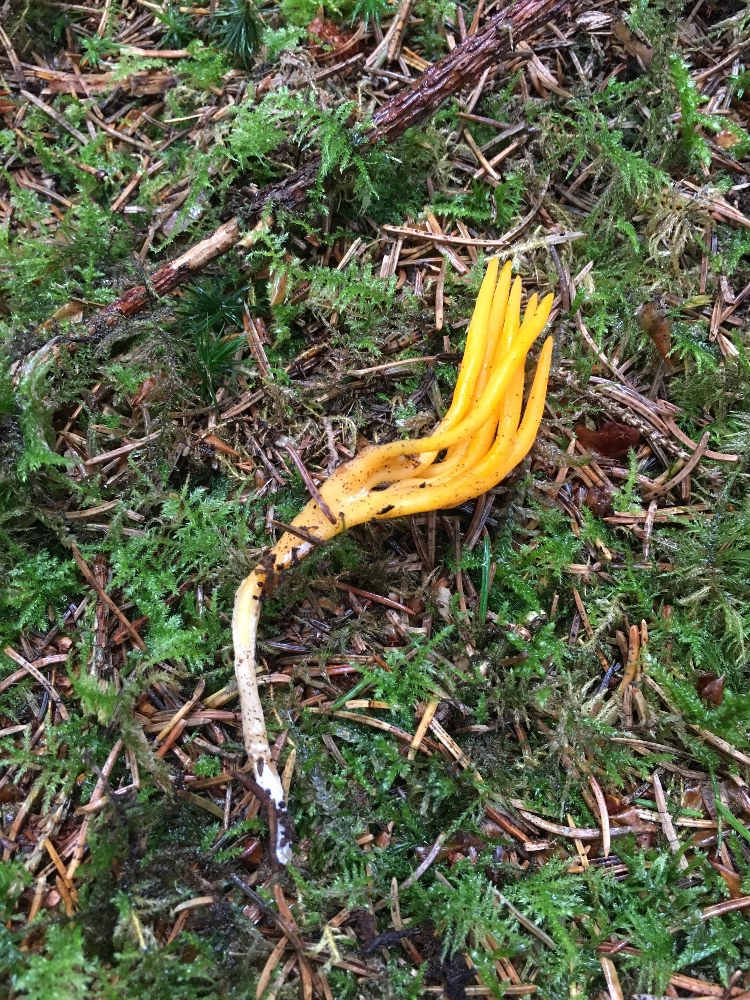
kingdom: Fungi
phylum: Basidiomycota
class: Dacrymycetes
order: Dacrymycetales
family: Dacrymycetaceae
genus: Calocera
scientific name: Calocera viscosa
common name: almindelig guldgaffel
